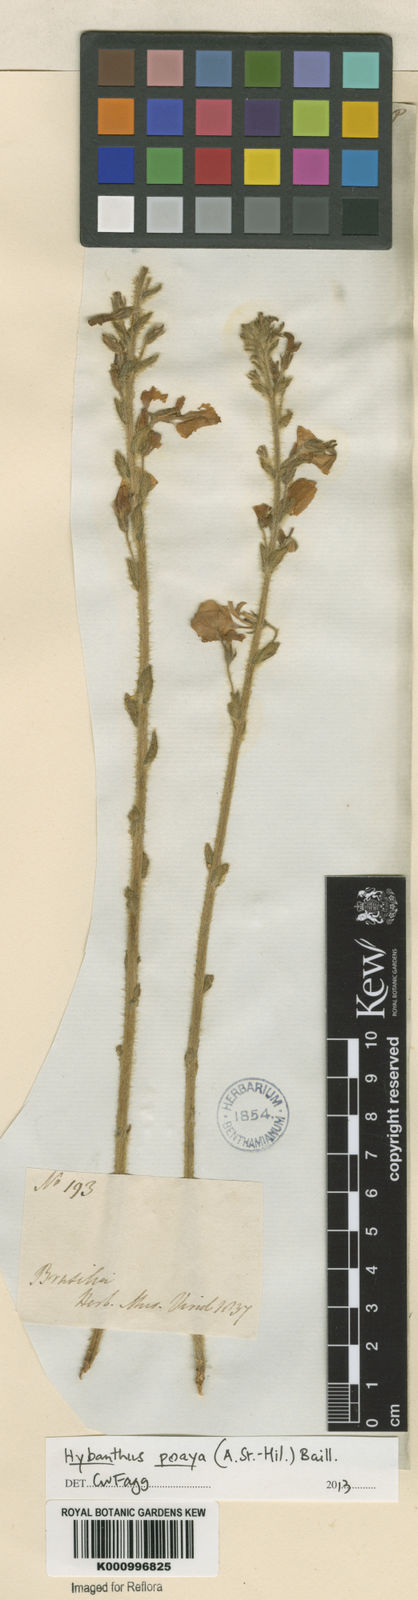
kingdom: Plantae
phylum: Tracheophyta
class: Magnoliopsida
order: Malpighiales
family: Violaceae
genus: Pombalia
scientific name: Pombalia poaya
